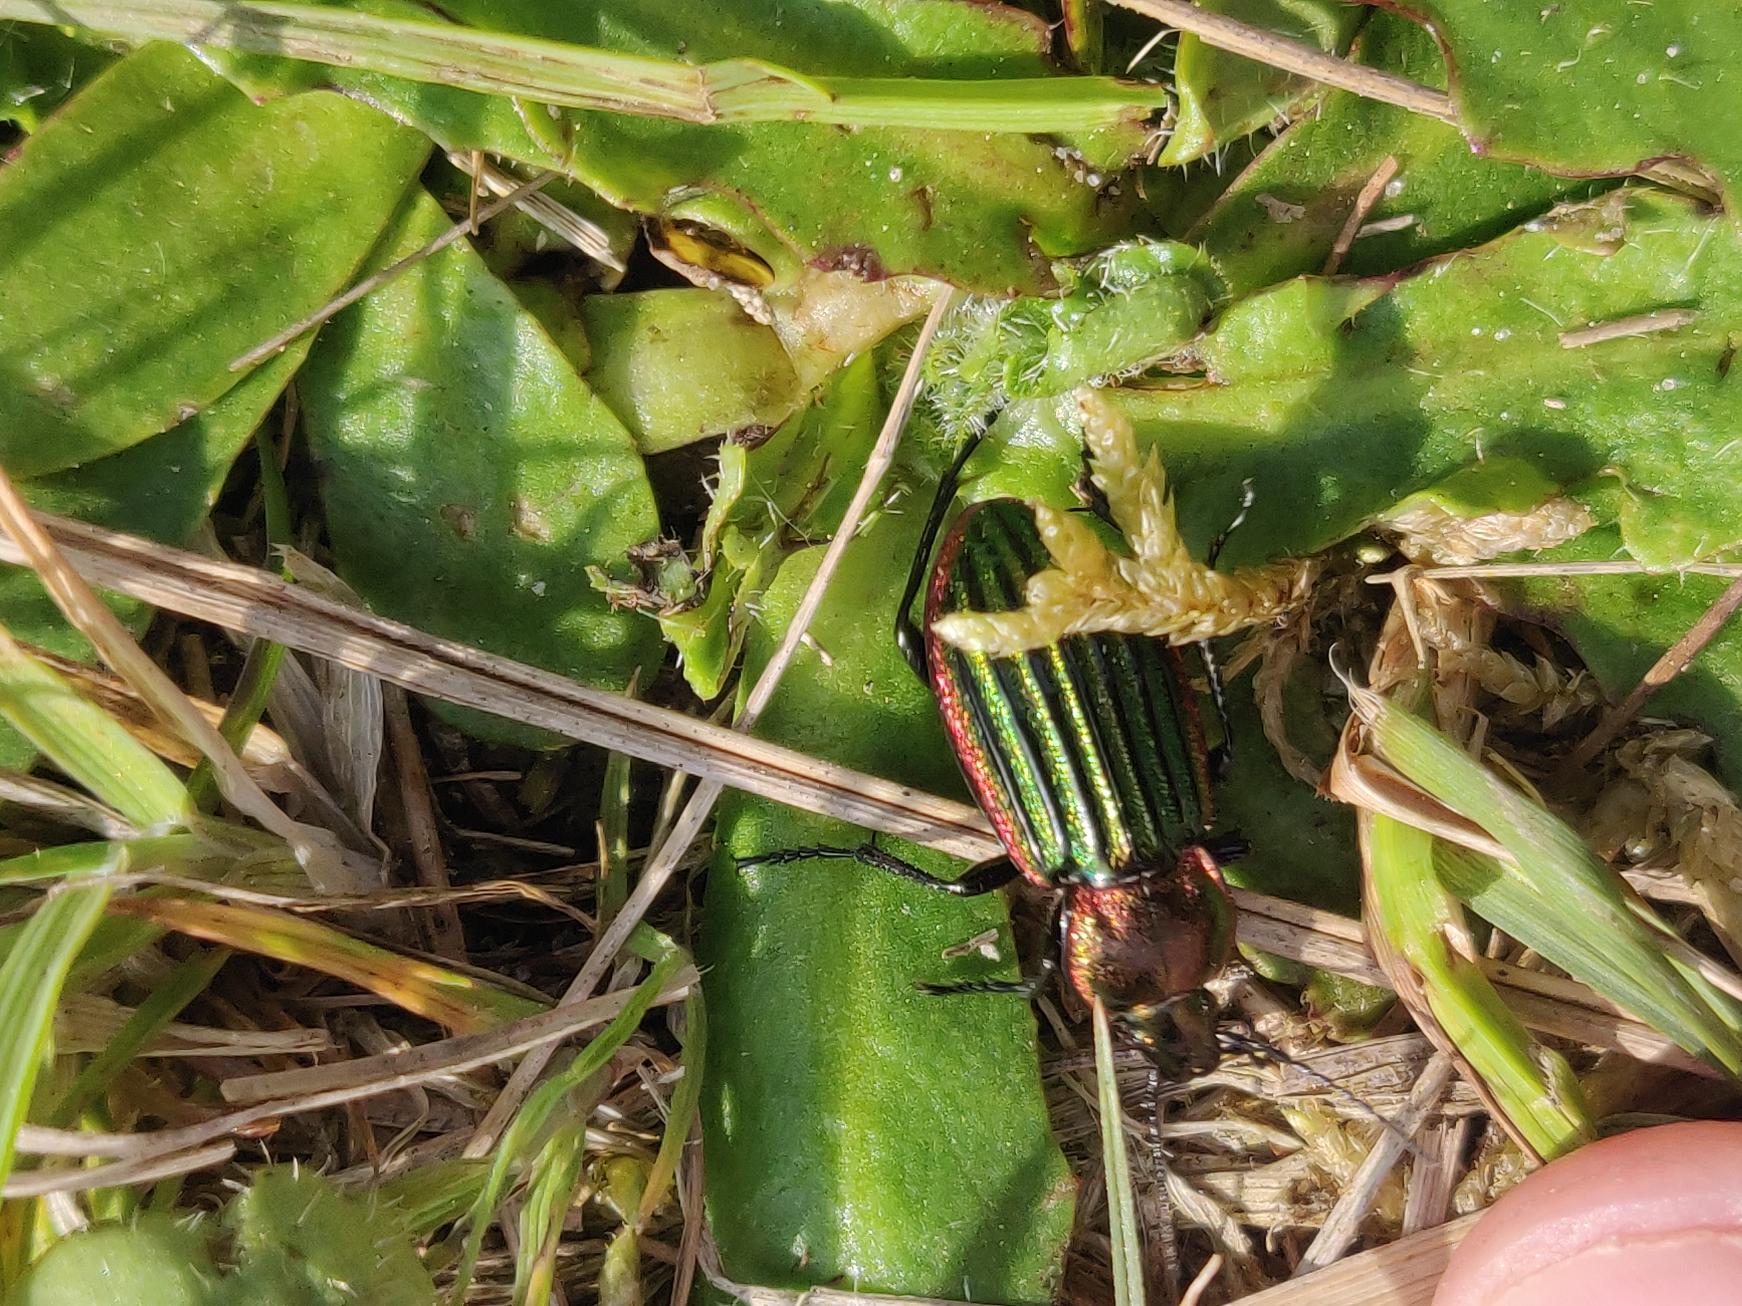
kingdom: Animalia
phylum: Arthropoda
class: Insecta
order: Coleoptera
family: Carabidae
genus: Carabus
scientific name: Carabus nitens
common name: Lille guldløber
